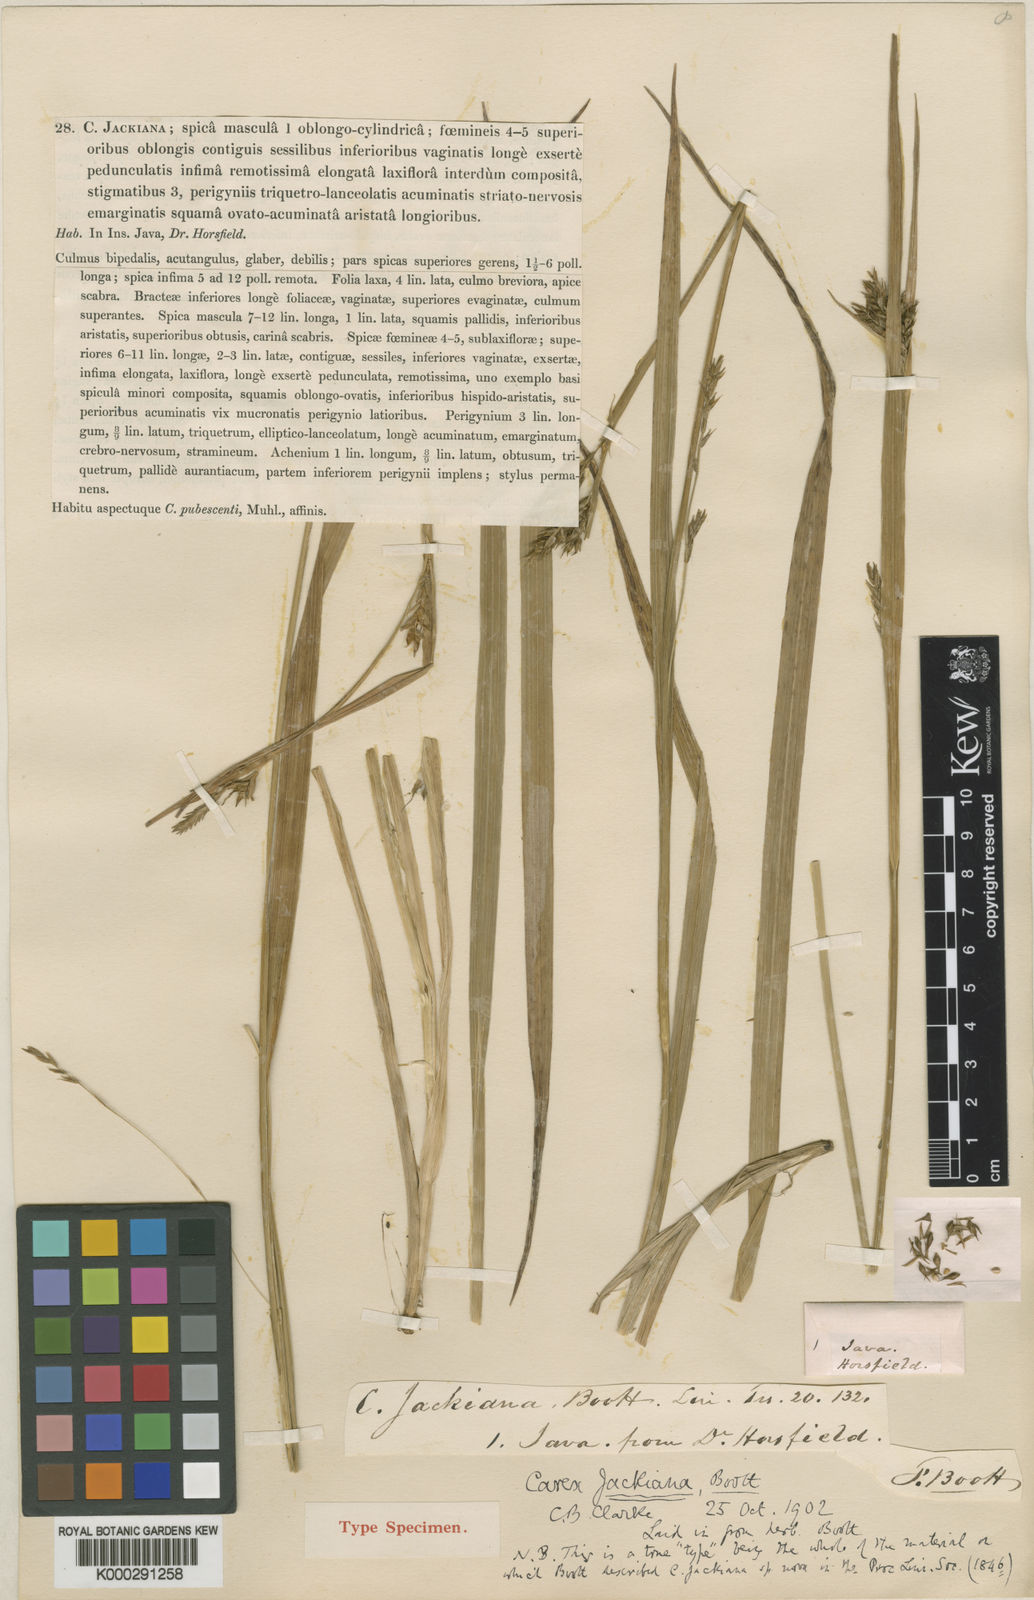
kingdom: Plantae
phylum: Tracheophyta
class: Liliopsida
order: Poales
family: Cyperaceae
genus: Carex
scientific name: Carex jackiana
